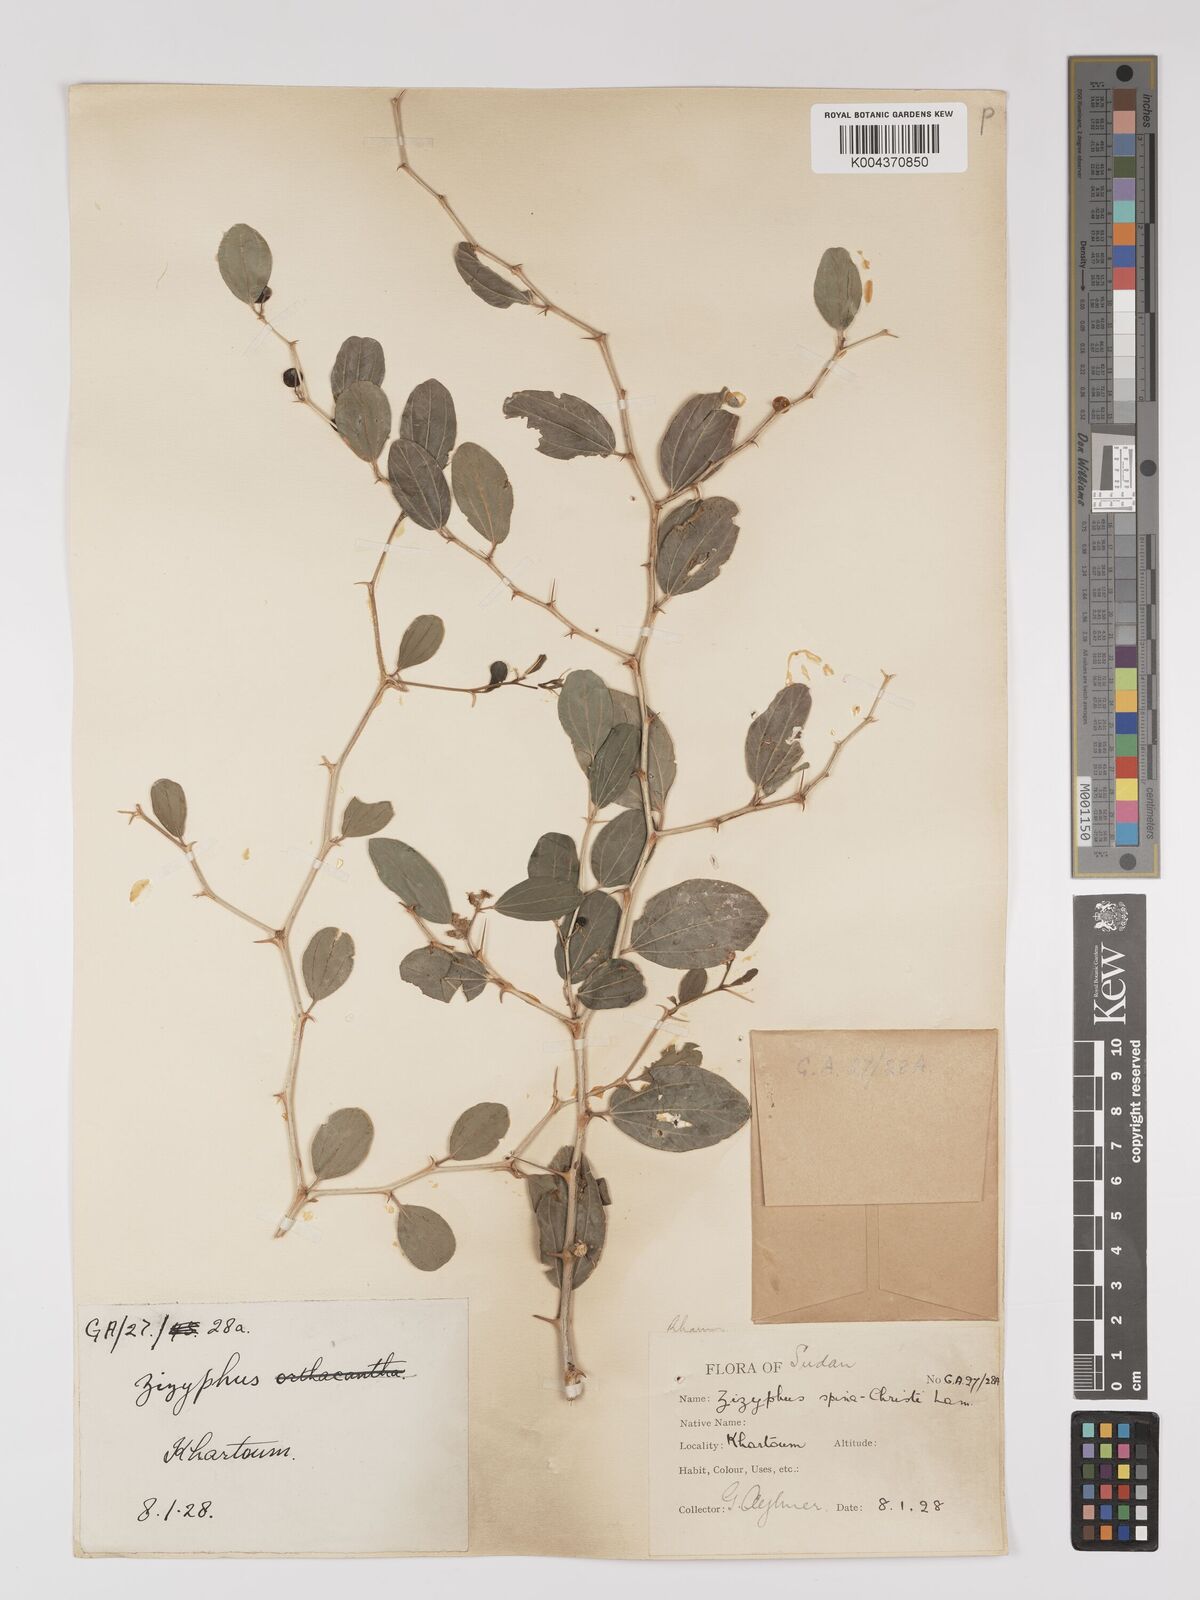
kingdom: Plantae
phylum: Tracheophyta
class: Magnoliopsida
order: Rosales
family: Rhamnaceae
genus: Ziziphus
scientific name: Ziziphus spina-christi
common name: Syrian christ-thorn
